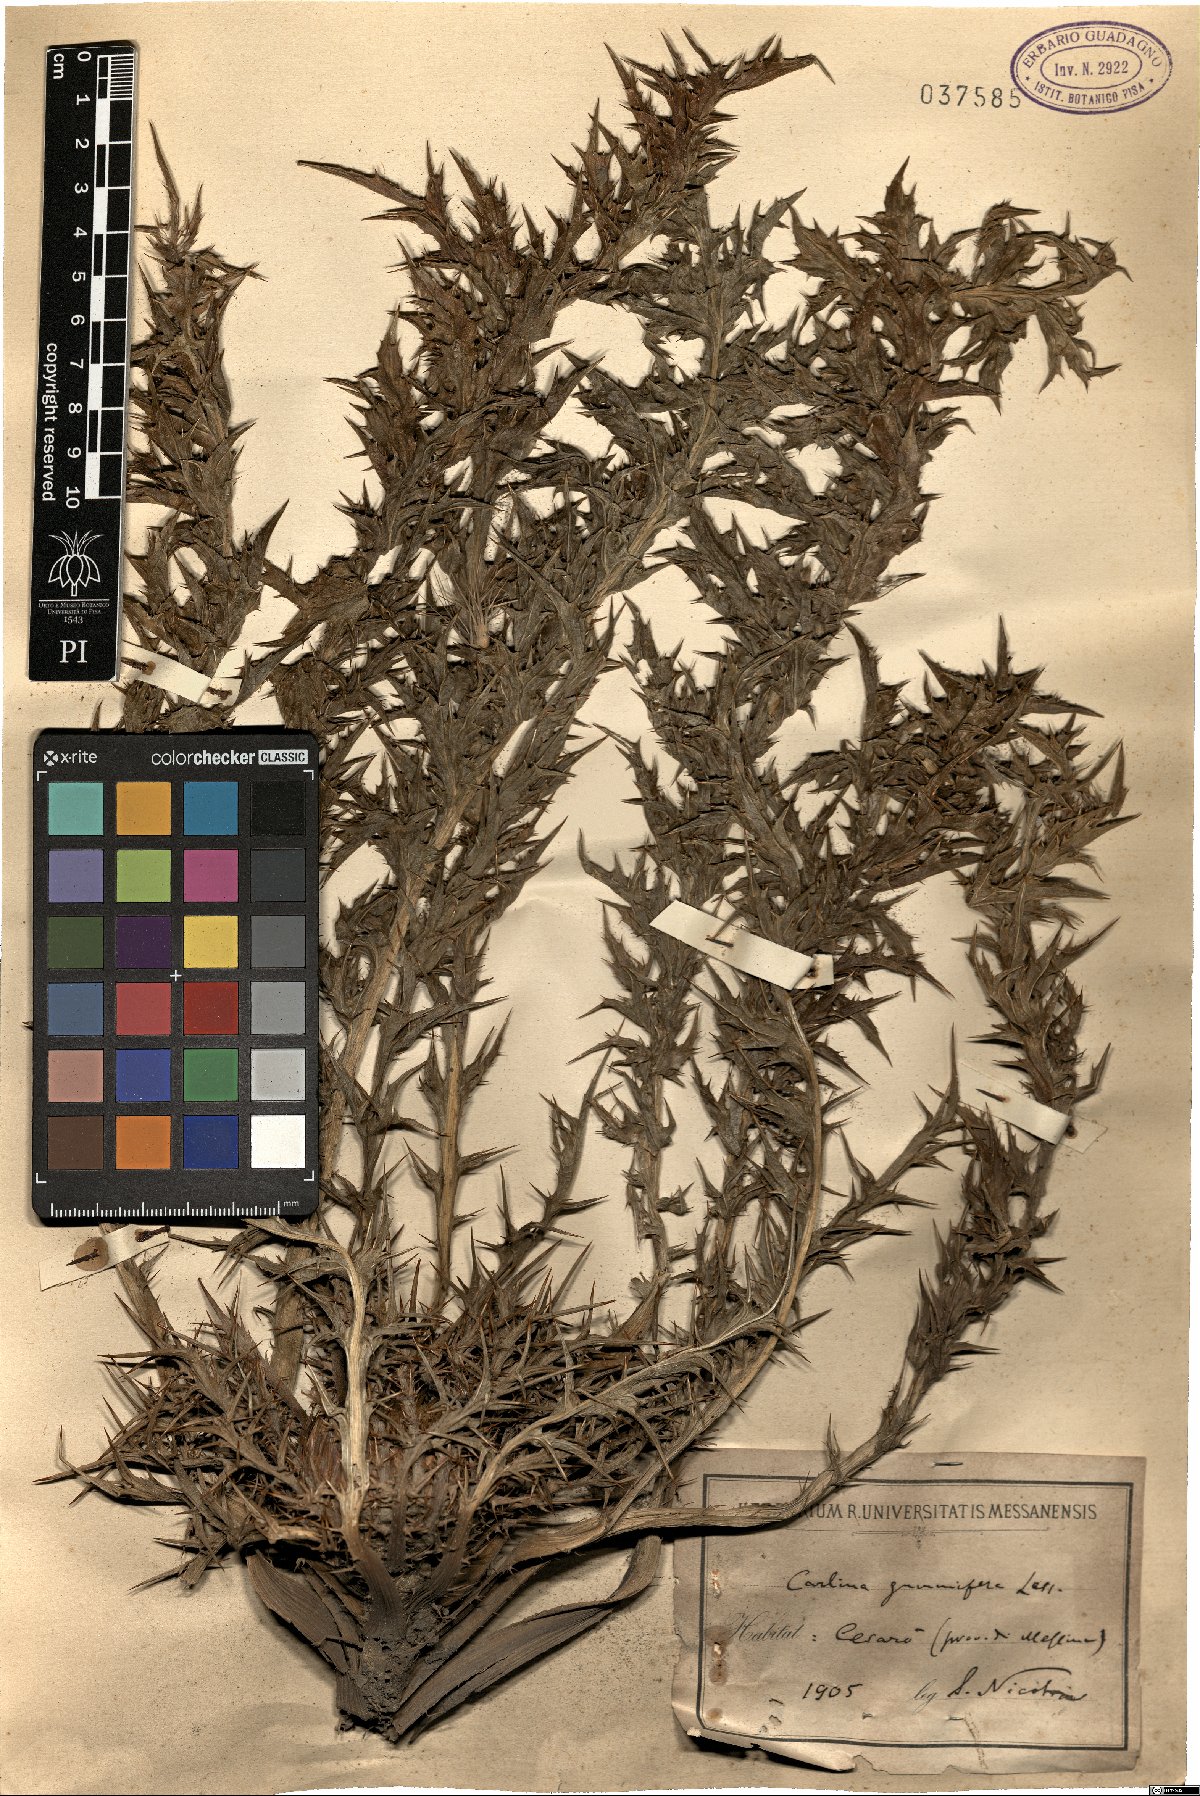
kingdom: Plantae
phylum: Tracheophyta
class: Magnoliopsida
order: Asterales
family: Asteraceae
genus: Chamaeleon
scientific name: Chamaeleon gummifer
